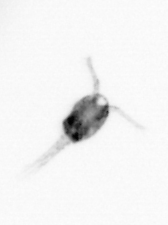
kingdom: Animalia
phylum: Annelida
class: Polychaeta
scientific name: Polychaeta
